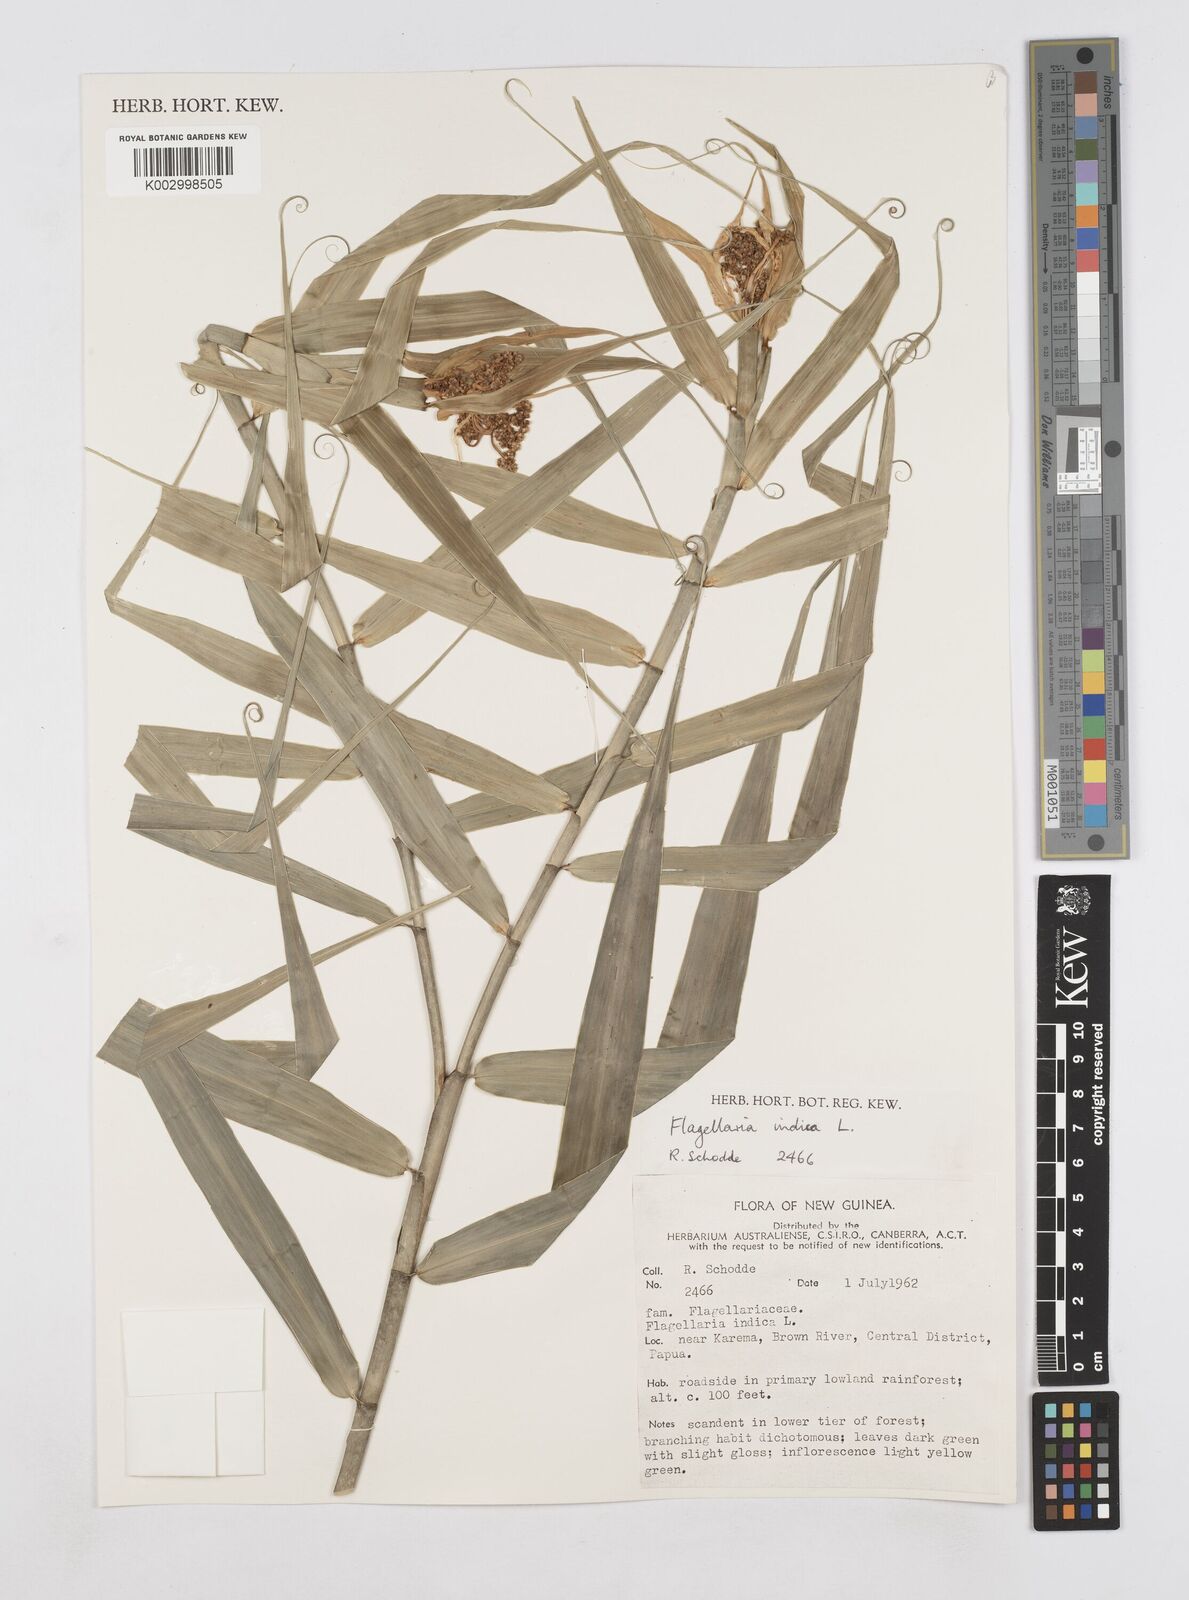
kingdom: Plantae
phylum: Tracheophyta
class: Liliopsida
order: Poales
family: Flagellariaceae
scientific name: Flagellariaceae
